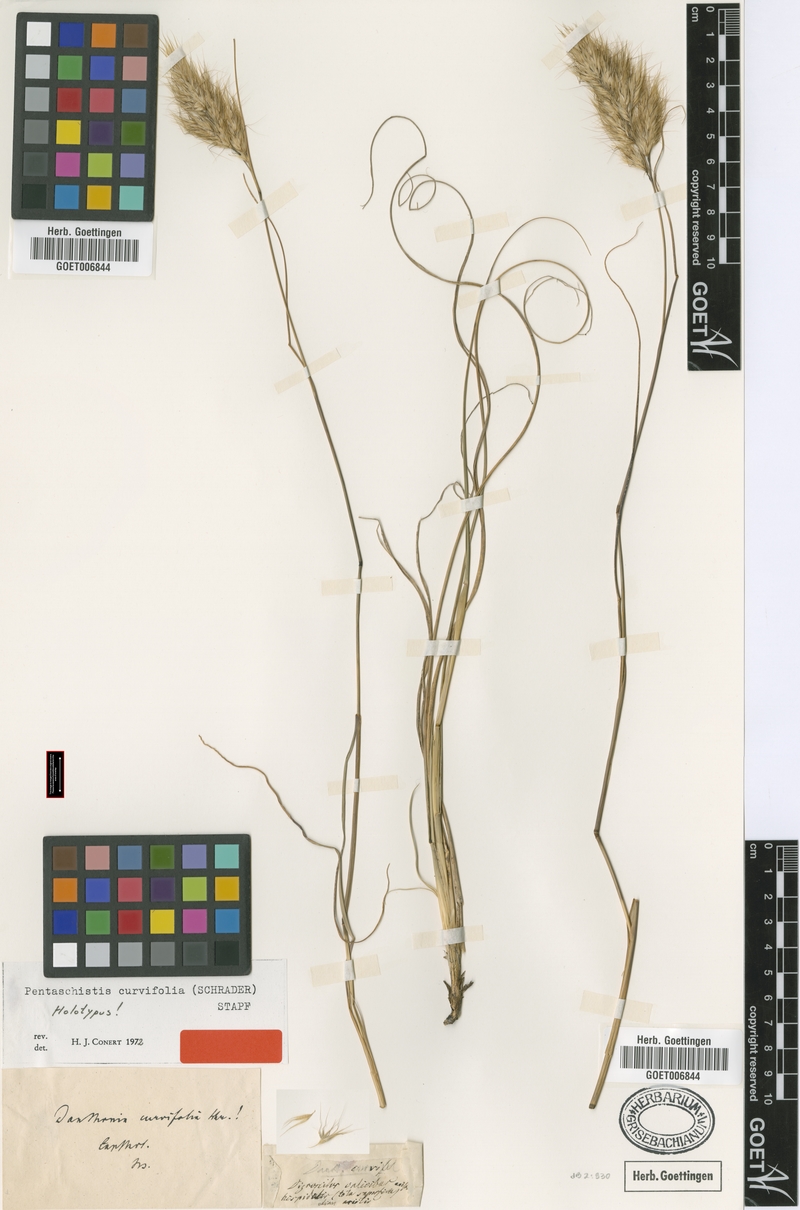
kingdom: Plantae
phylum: Tracheophyta
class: Liliopsida
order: Poales
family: Poaceae
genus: Pentameris
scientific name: Pentameris curvifolia
